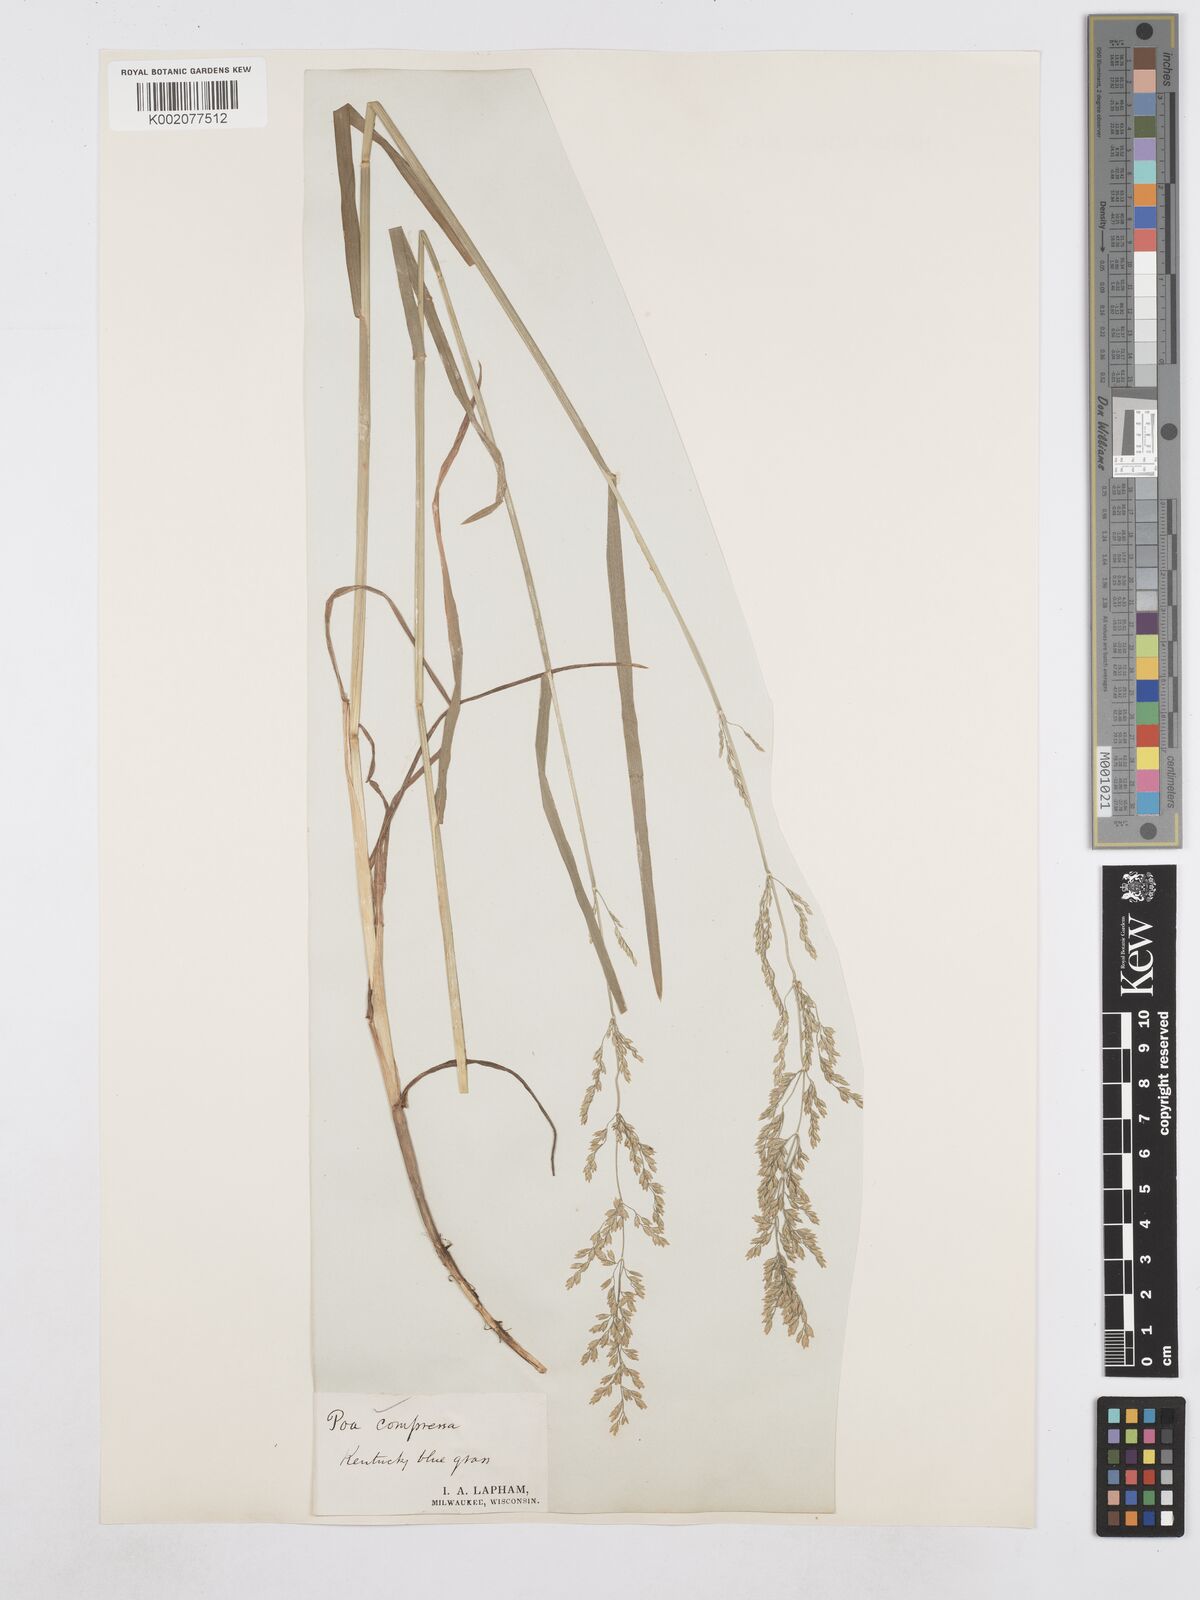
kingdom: Plantae
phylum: Tracheophyta
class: Liliopsida
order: Poales
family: Poaceae
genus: Poa
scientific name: Poa compressa
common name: Canada bluegrass
